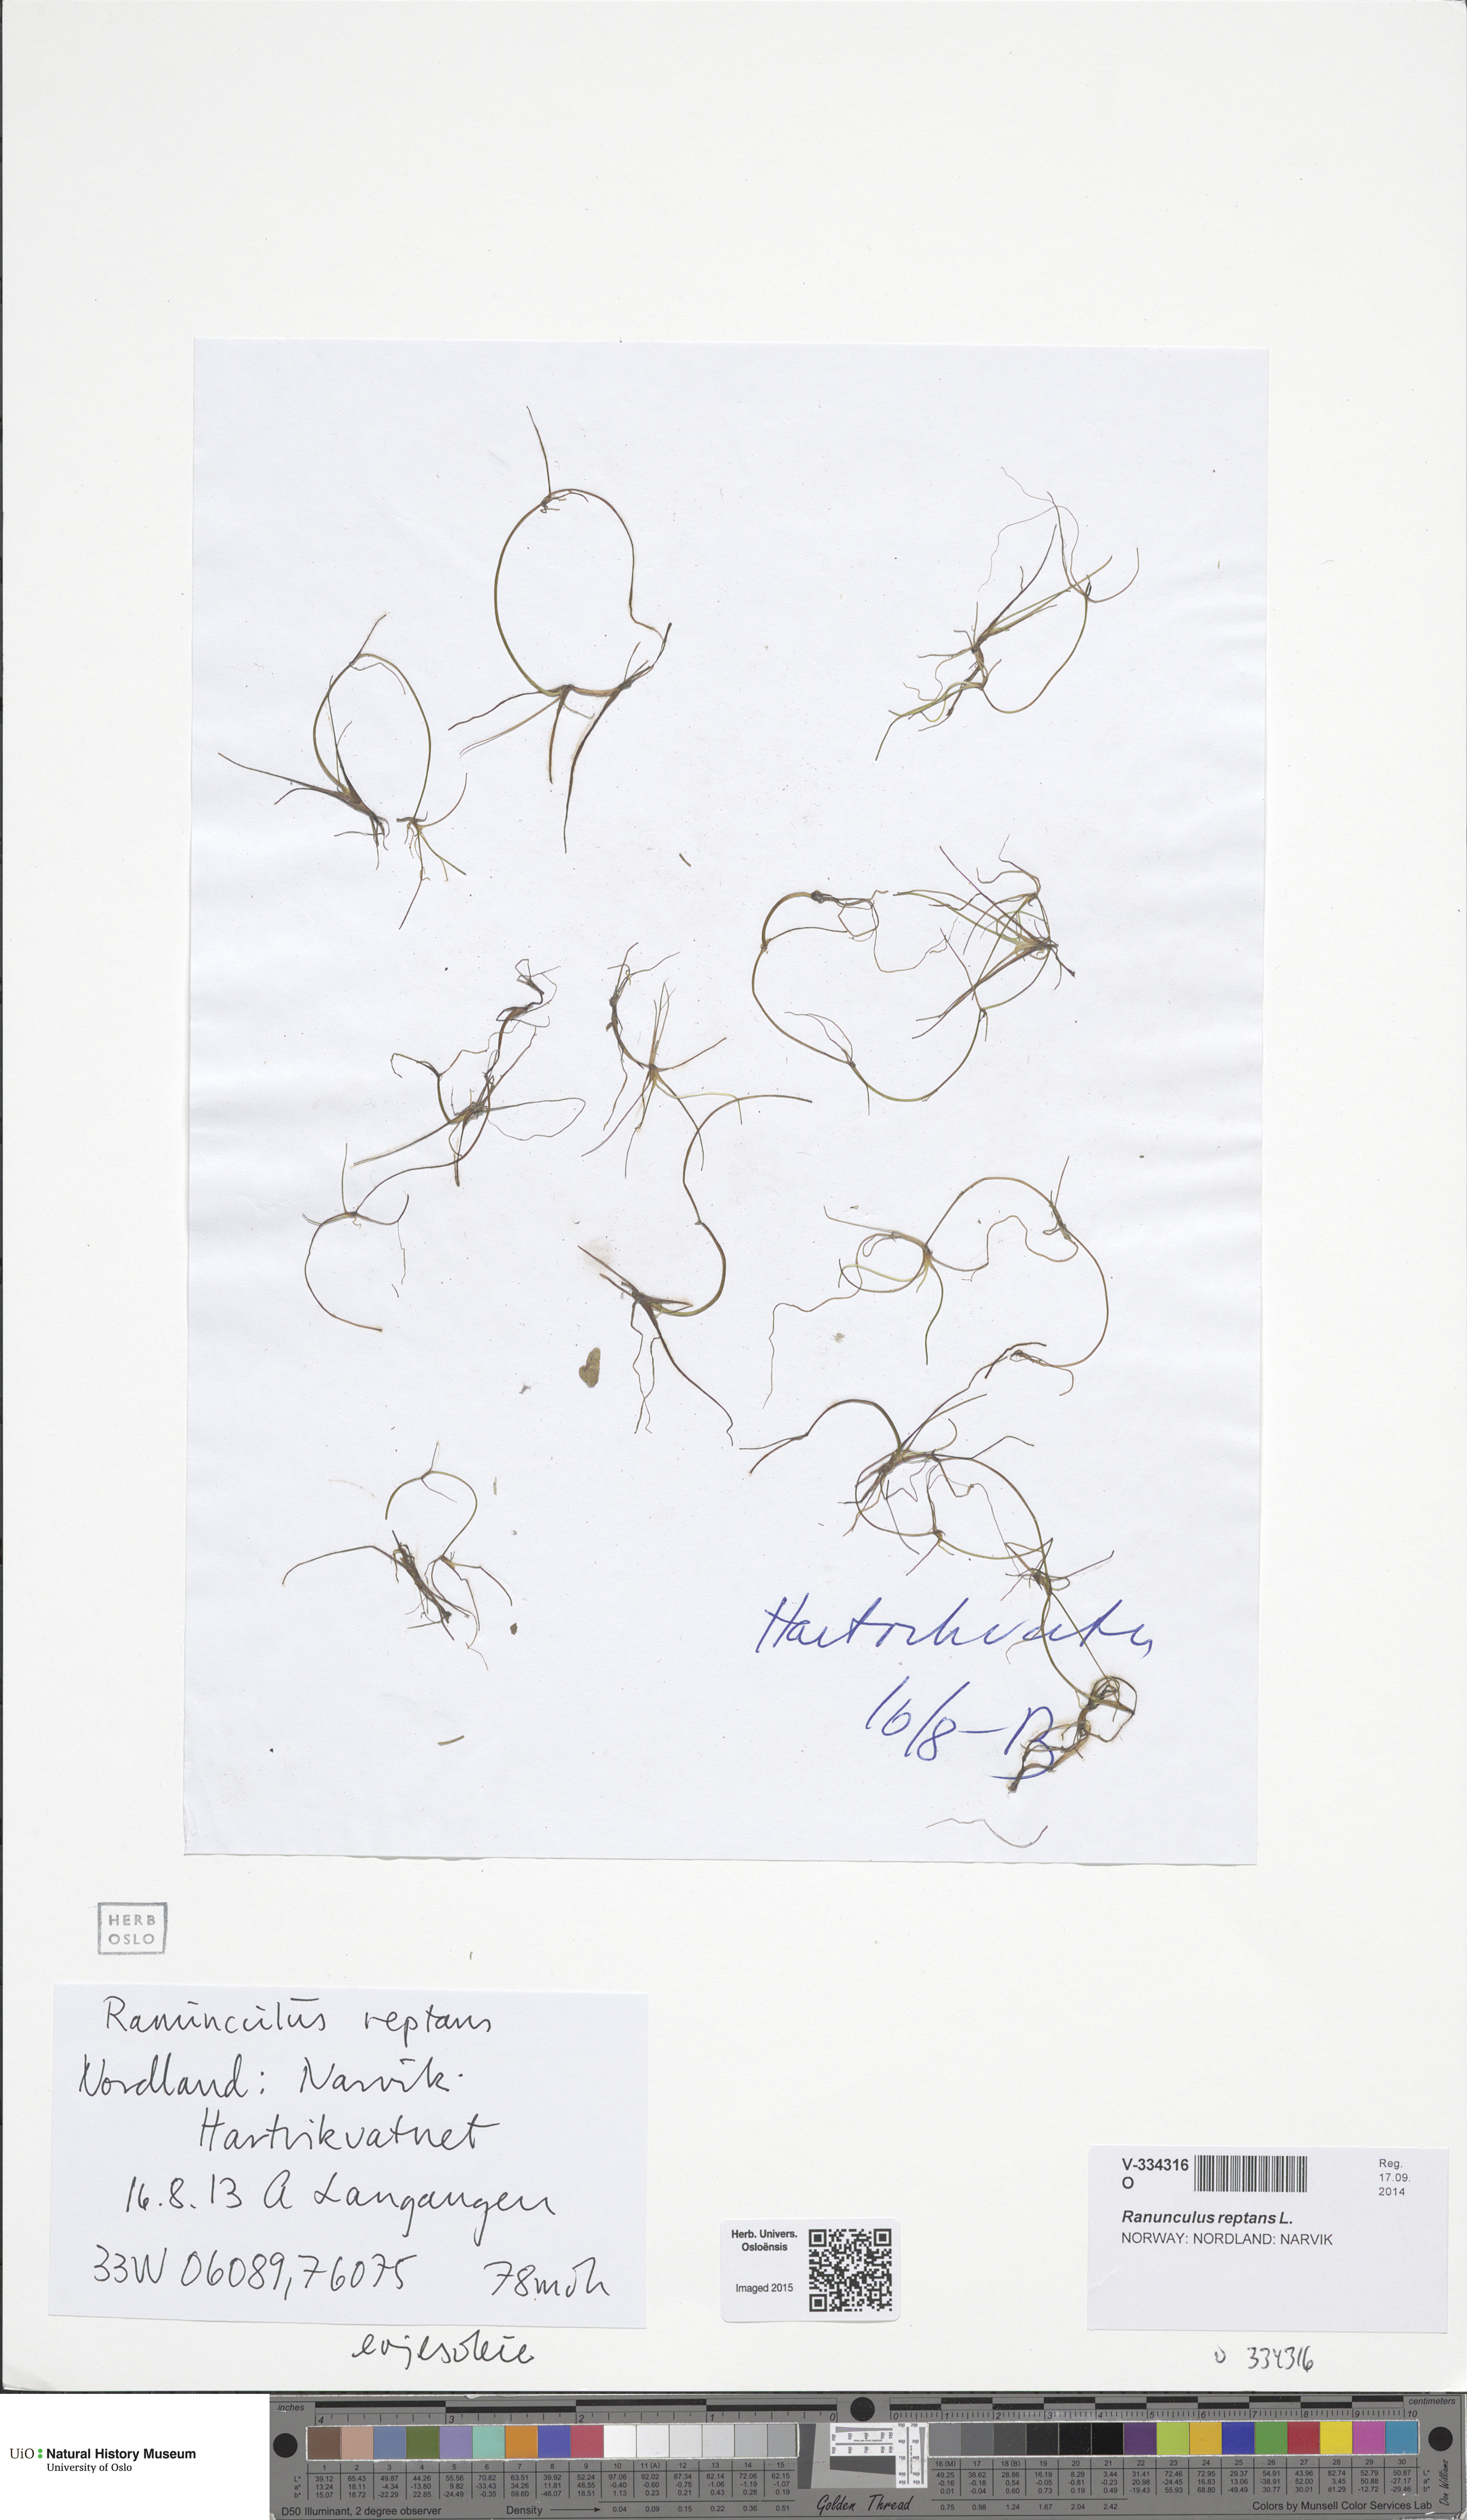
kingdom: Plantae
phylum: Tracheophyta
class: Magnoliopsida
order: Ranunculales
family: Ranunculaceae
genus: Ranunculus
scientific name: Ranunculus reptans
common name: Creeping spearwort
